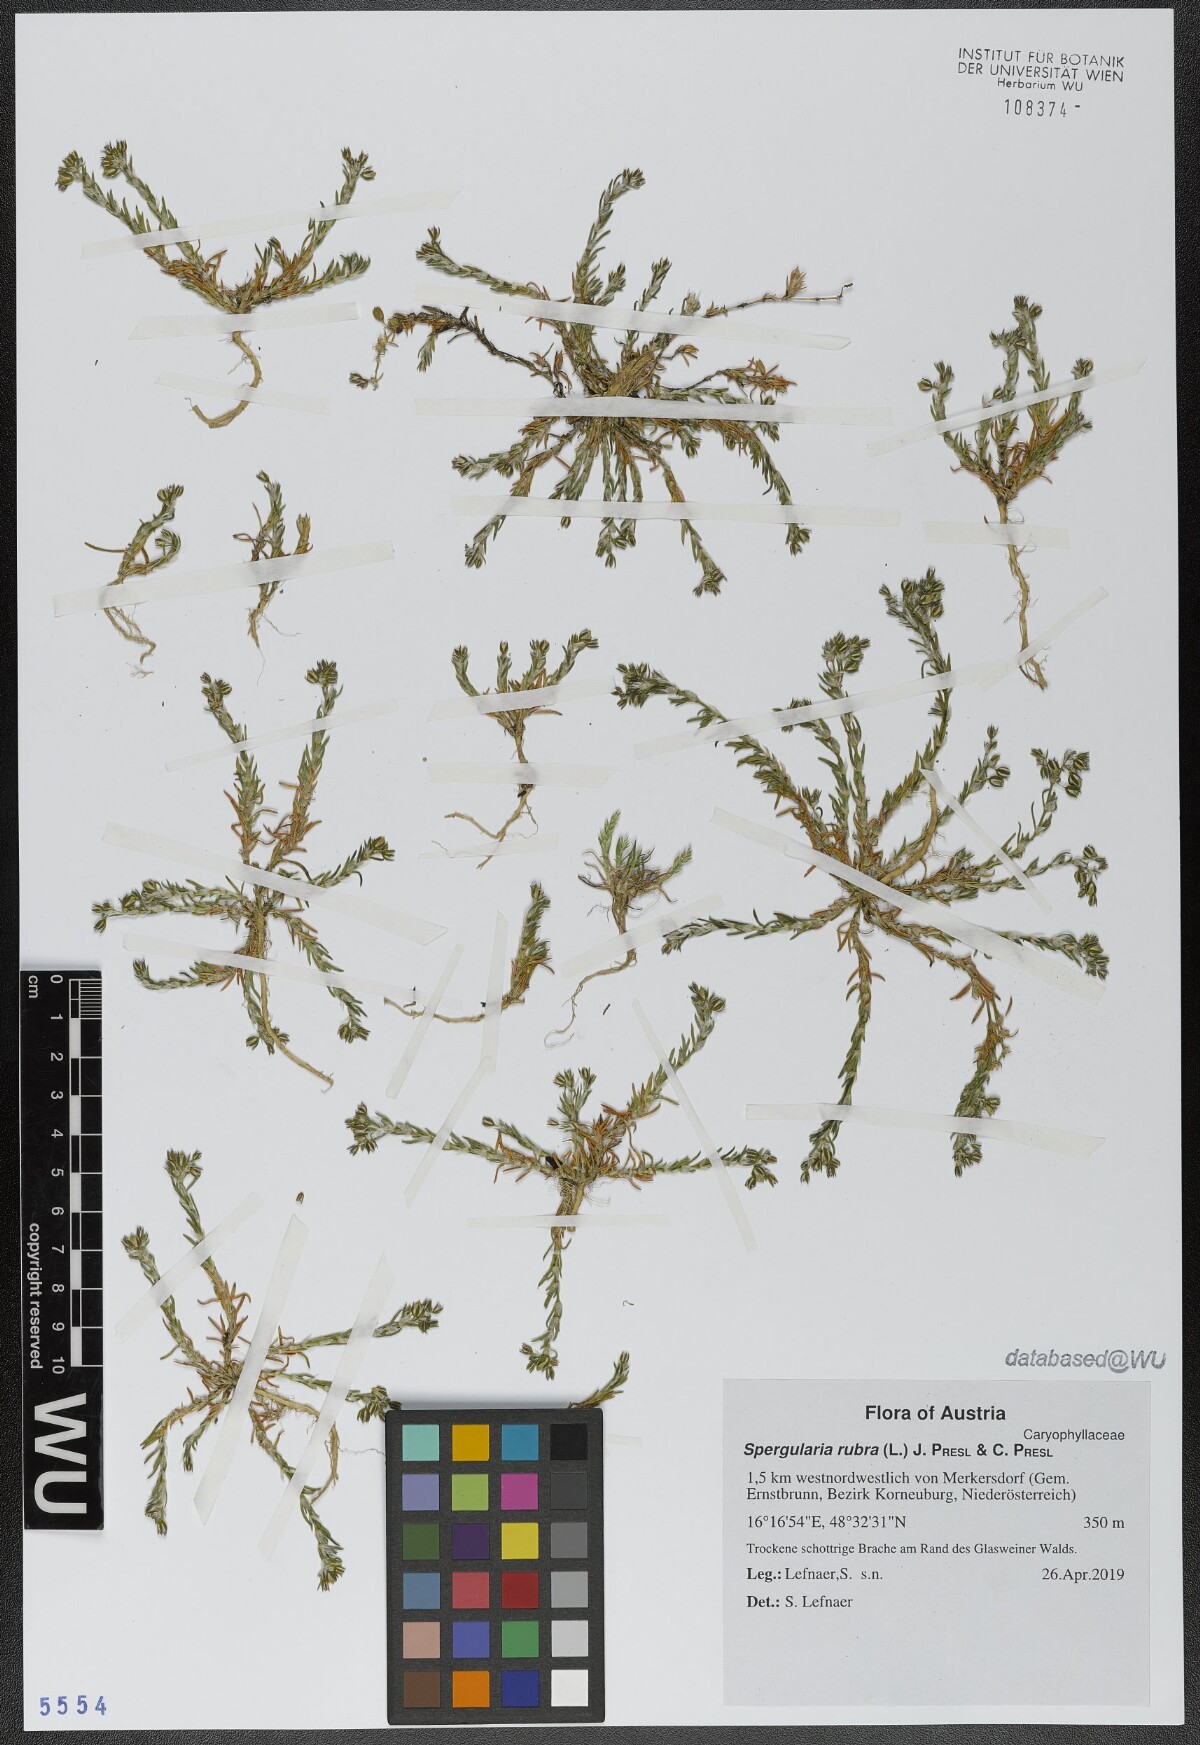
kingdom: Plantae
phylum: Tracheophyta
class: Magnoliopsida
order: Caryophyllales
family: Caryophyllaceae
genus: Spergularia
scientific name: Spergularia rubra
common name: Red sand-spurrey
